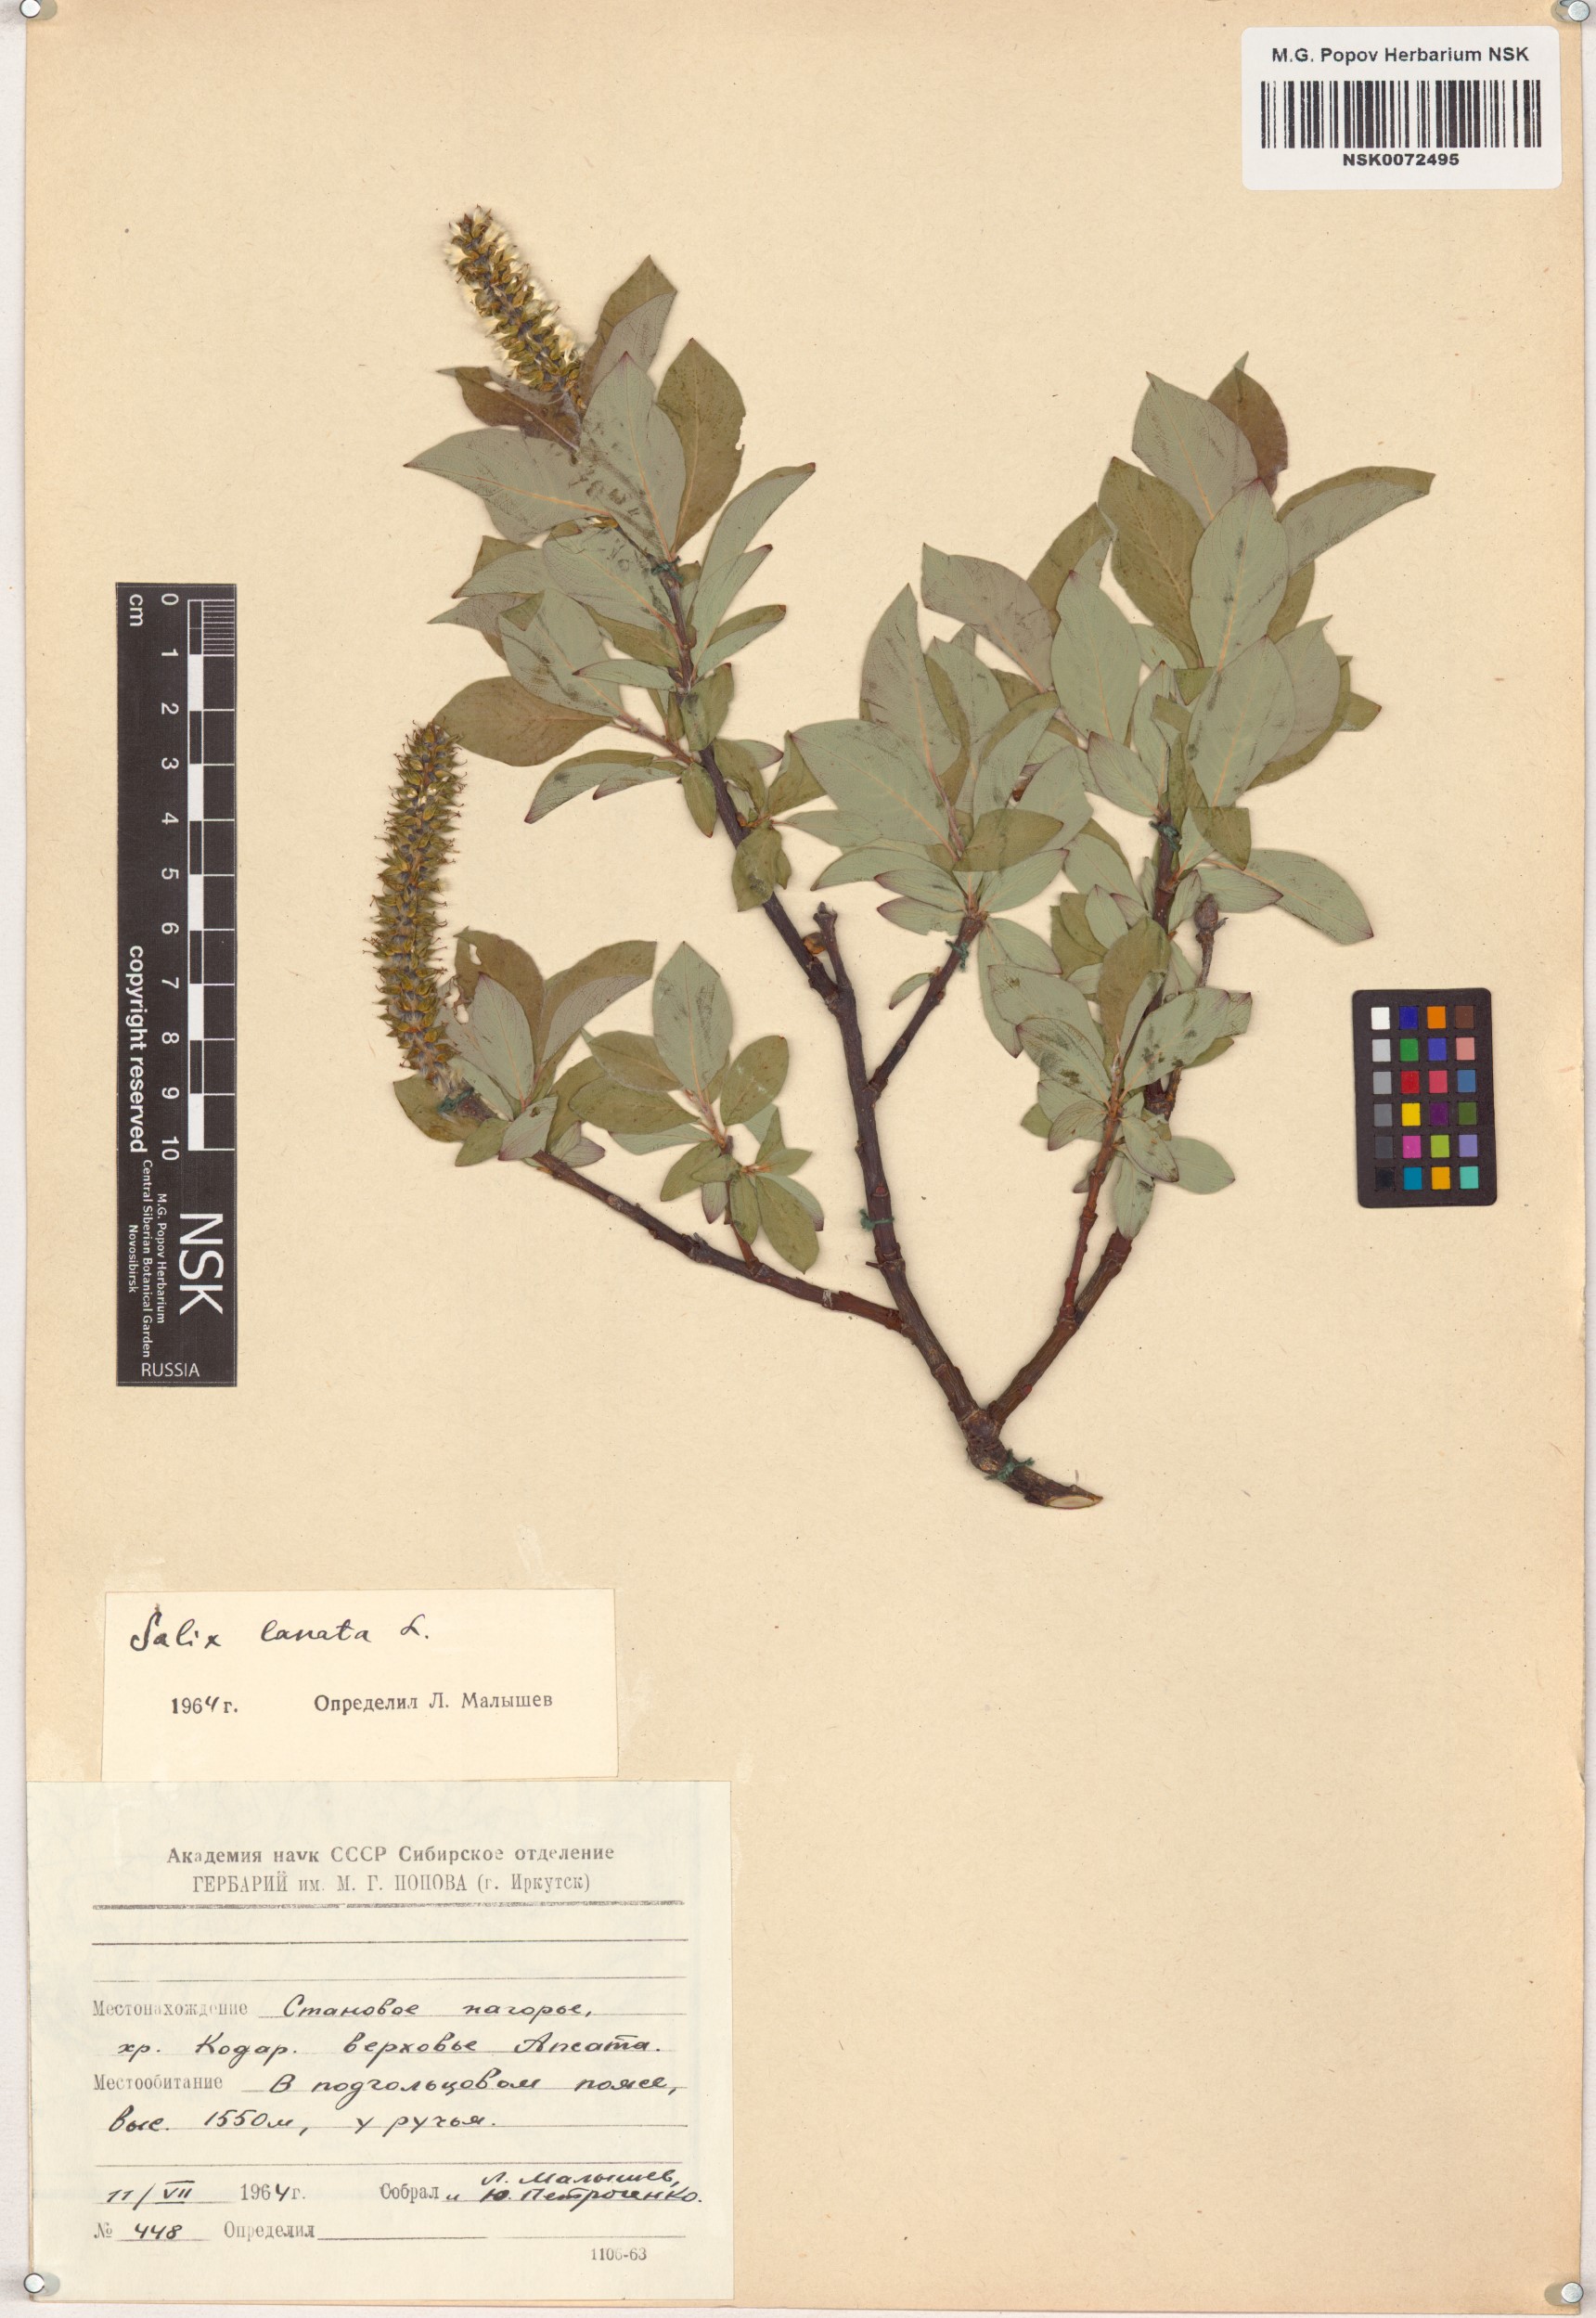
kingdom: Plantae
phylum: Tracheophyta
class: Magnoliopsida
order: Malpighiales
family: Salicaceae
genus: Salix
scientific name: Salix lanata
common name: Woolly willow
